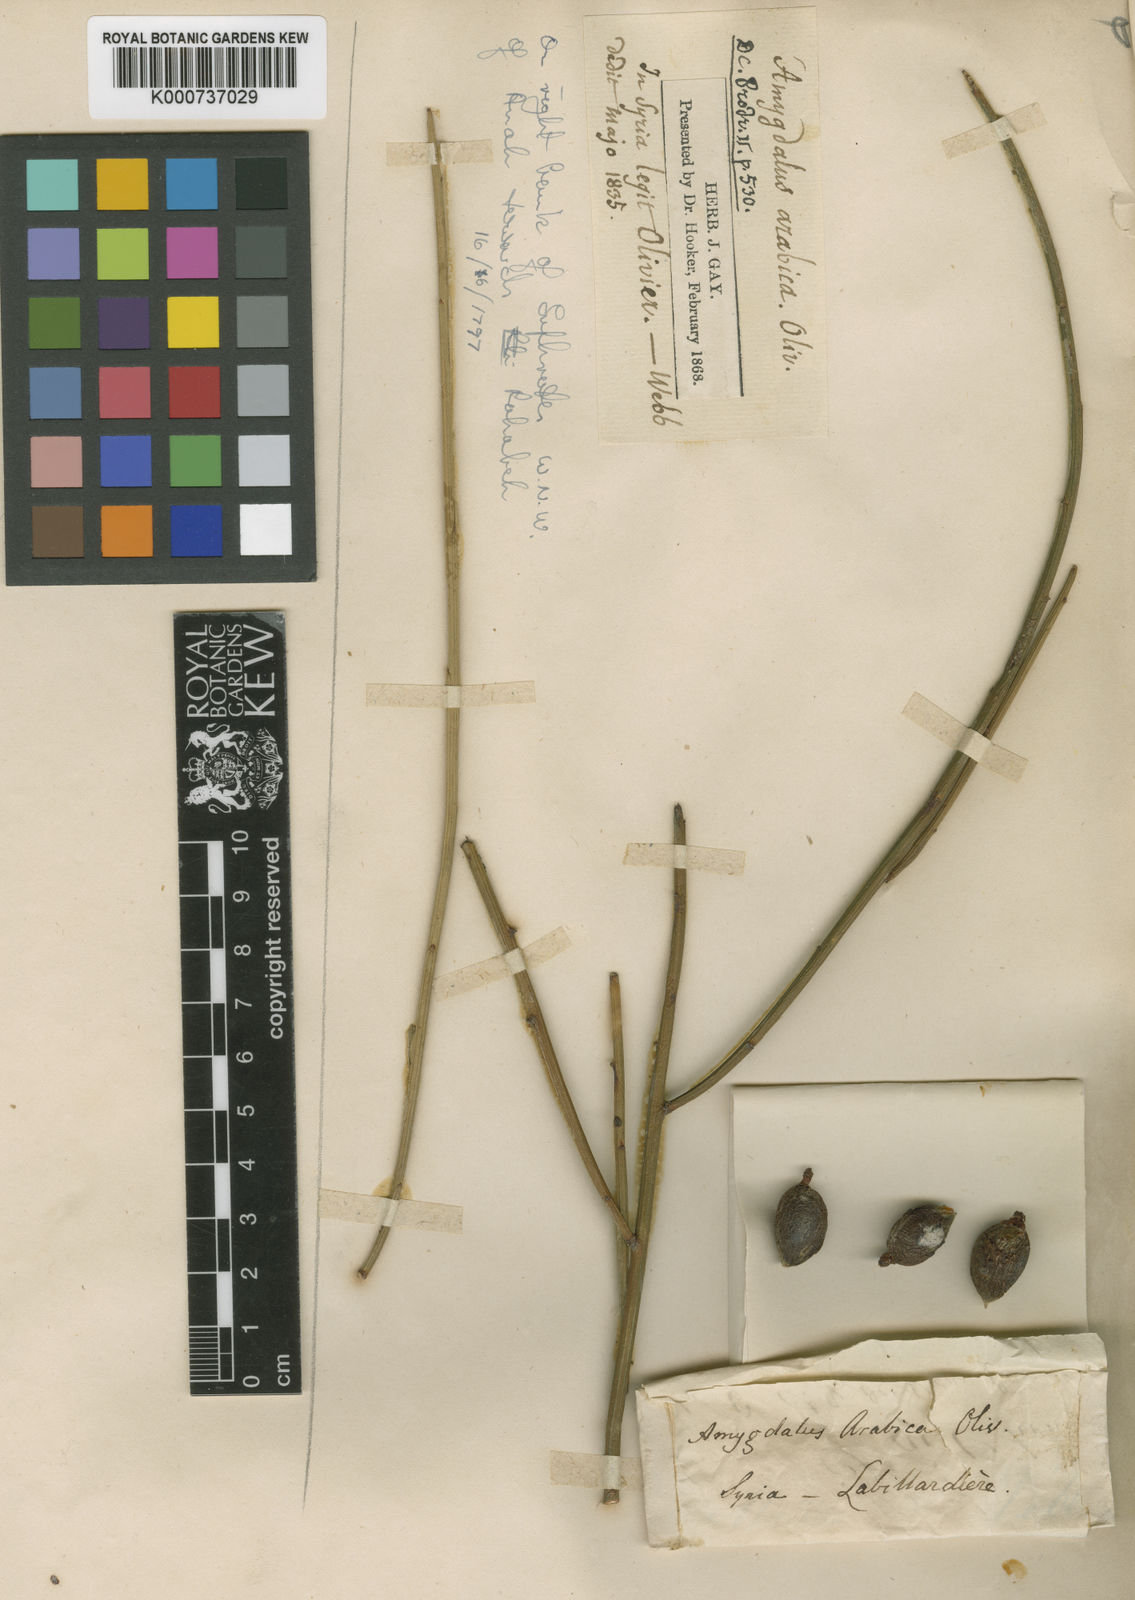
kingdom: Plantae
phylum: Tracheophyta
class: Magnoliopsida
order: Rosales
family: Rosaceae
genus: Prunus
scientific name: Prunus arabica
